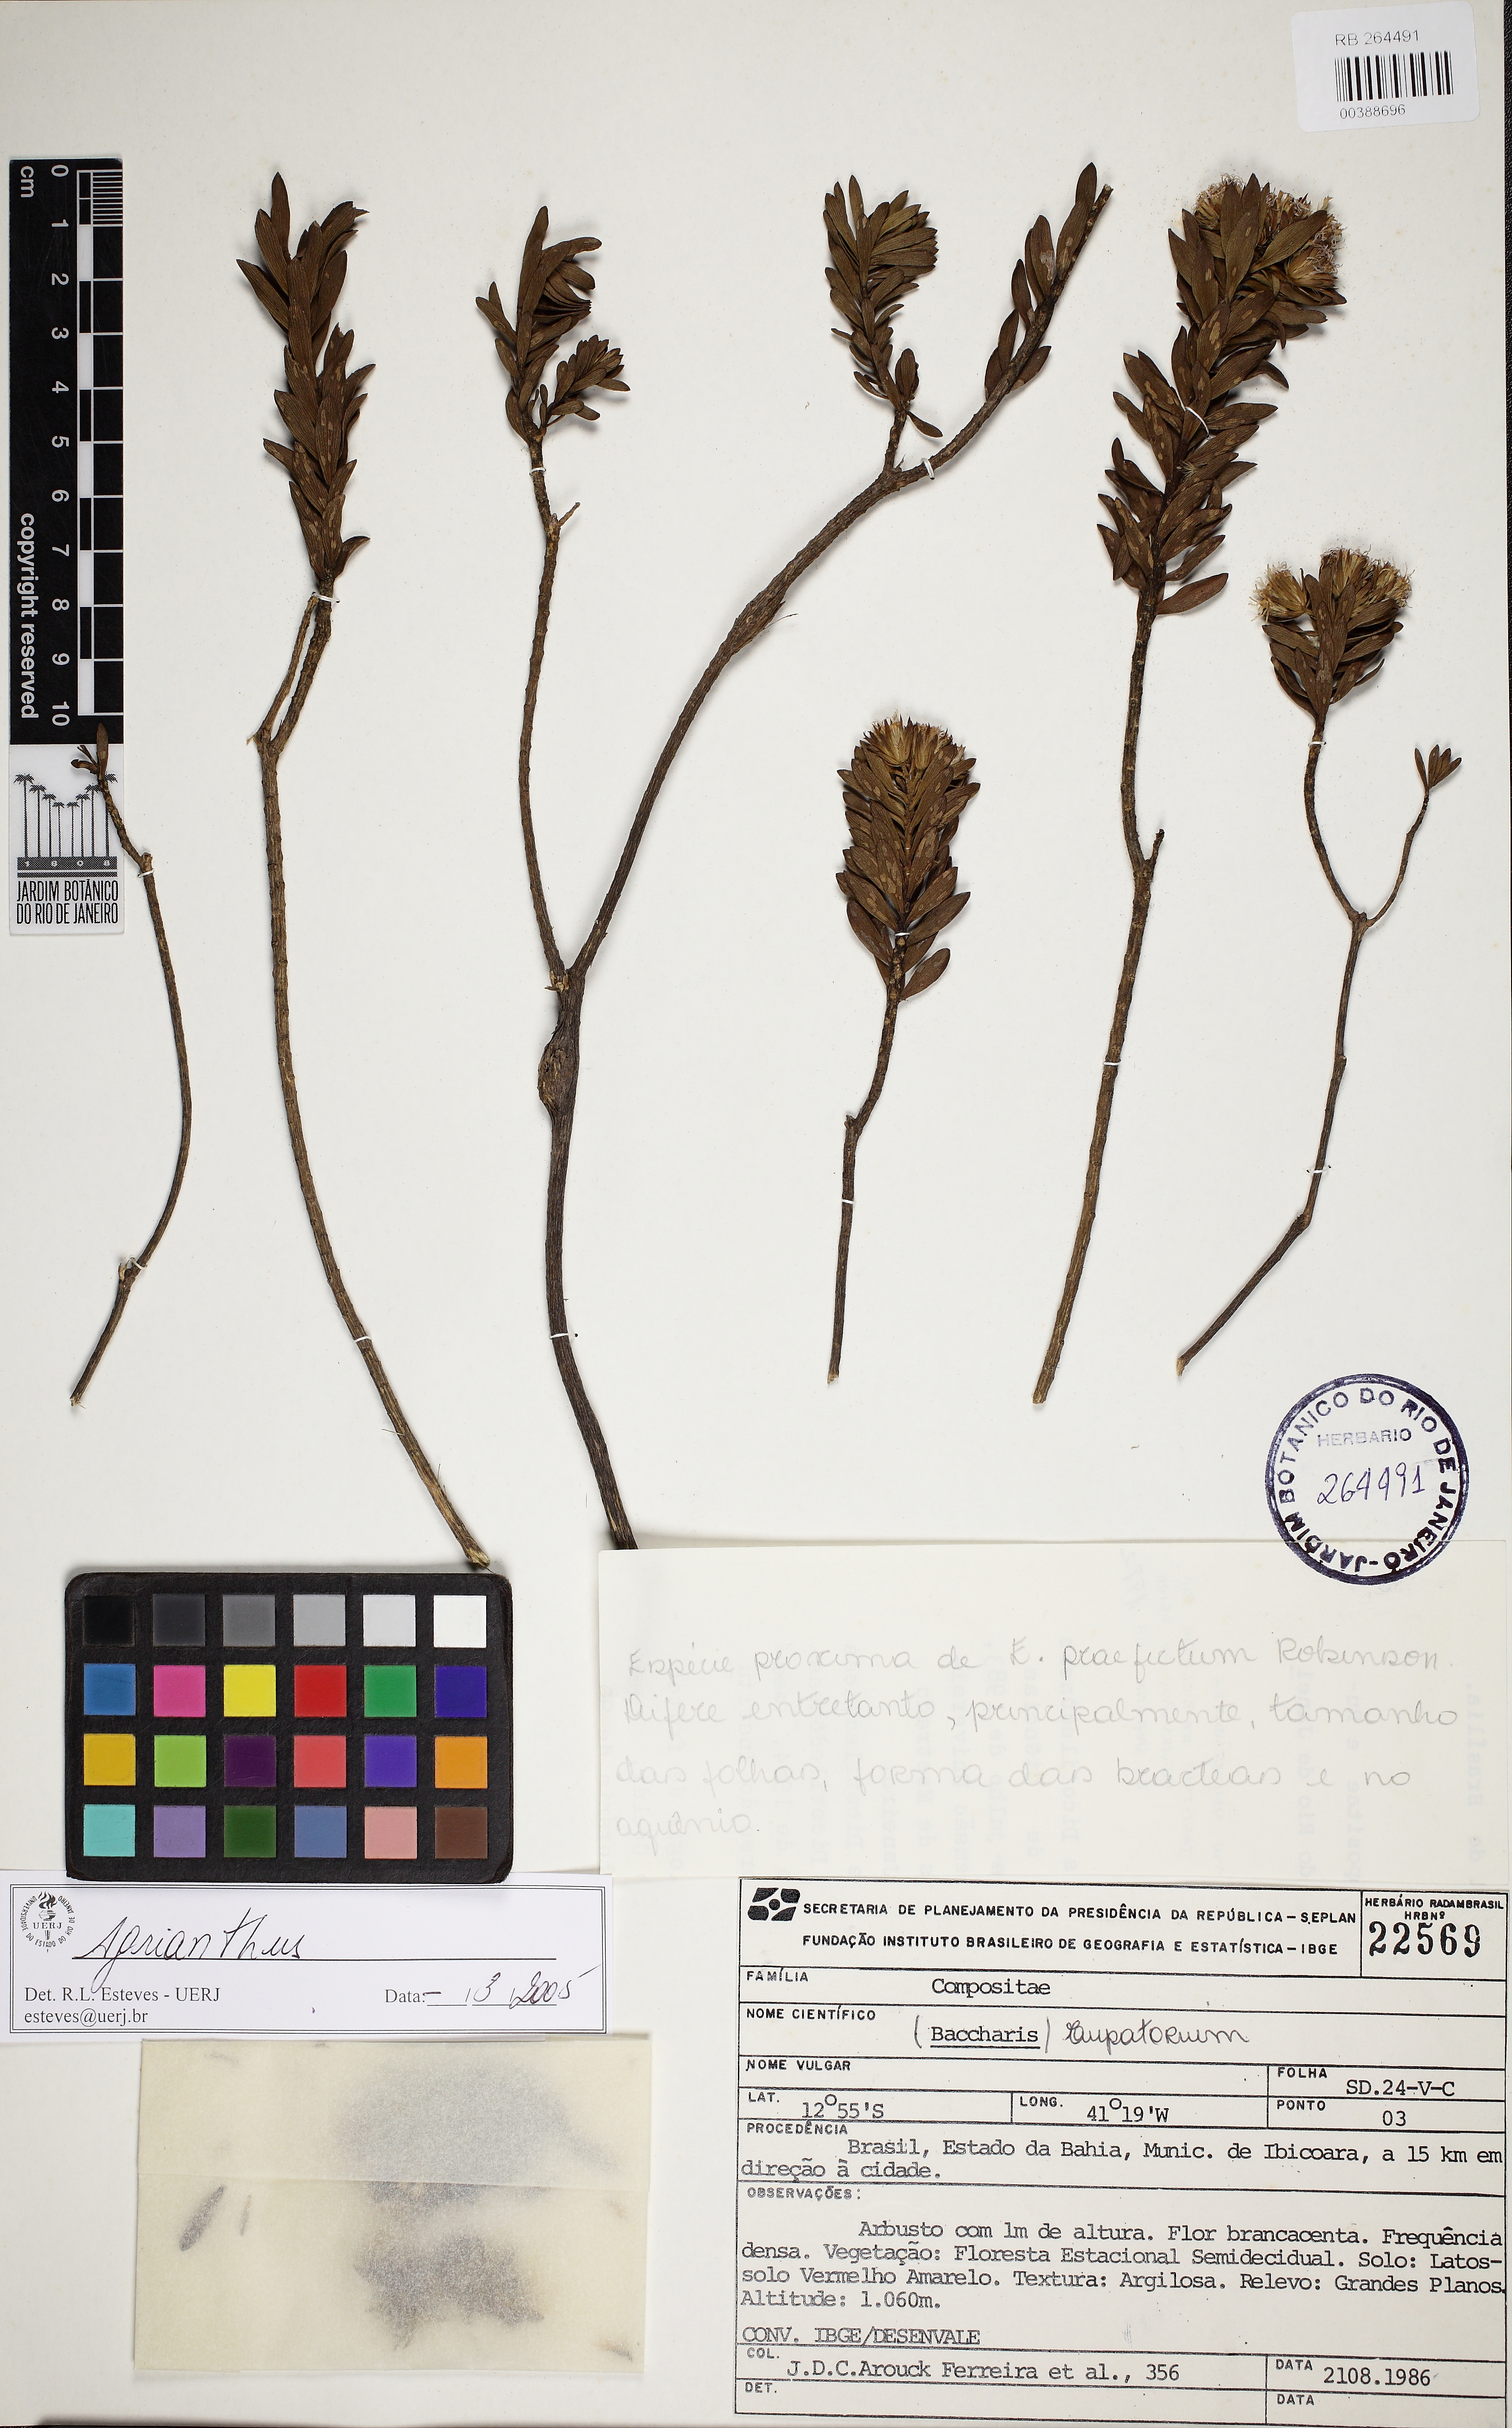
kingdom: Plantae
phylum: Tracheophyta
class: Magnoliopsida
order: Asterales
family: Asteraceae
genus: Agrianthus
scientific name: Agrianthus carvalhoi
